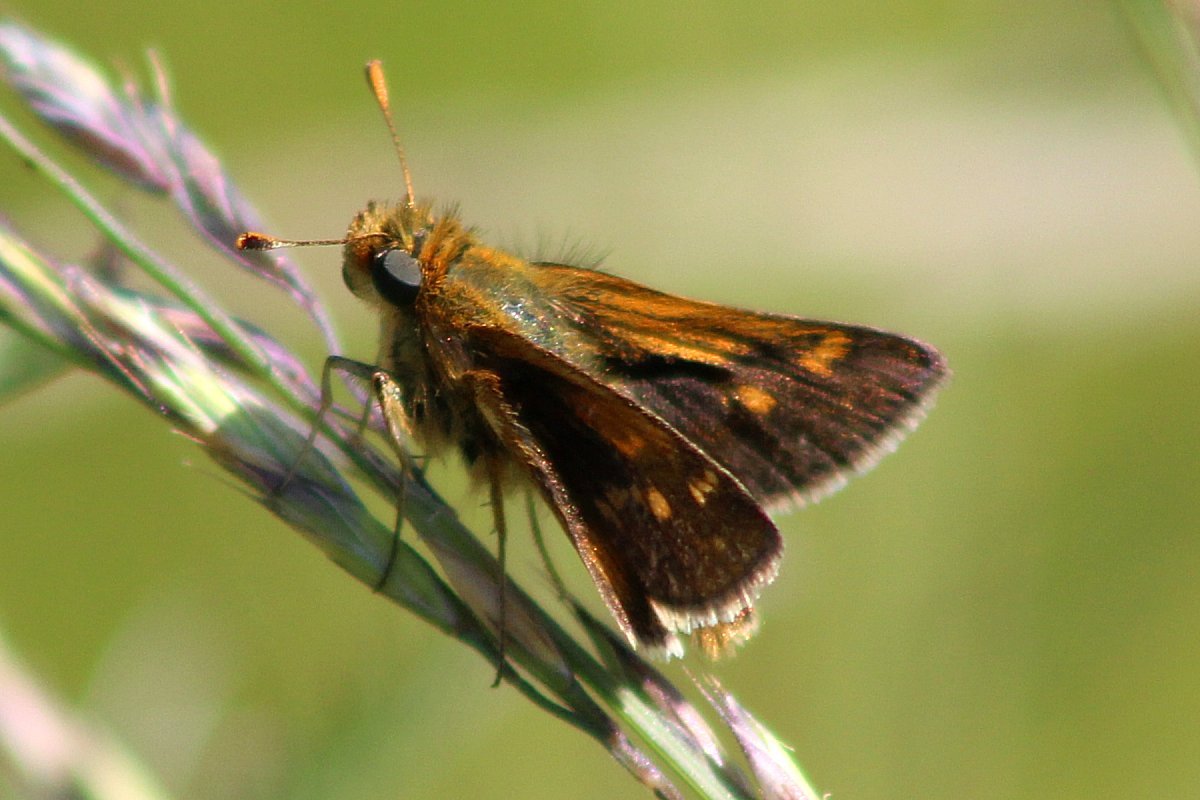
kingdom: Animalia
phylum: Arthropoda
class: Insecta
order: Lepidoptera
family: Hesperiidae
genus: Polites
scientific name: Polites coras
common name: Peck's Skipper
